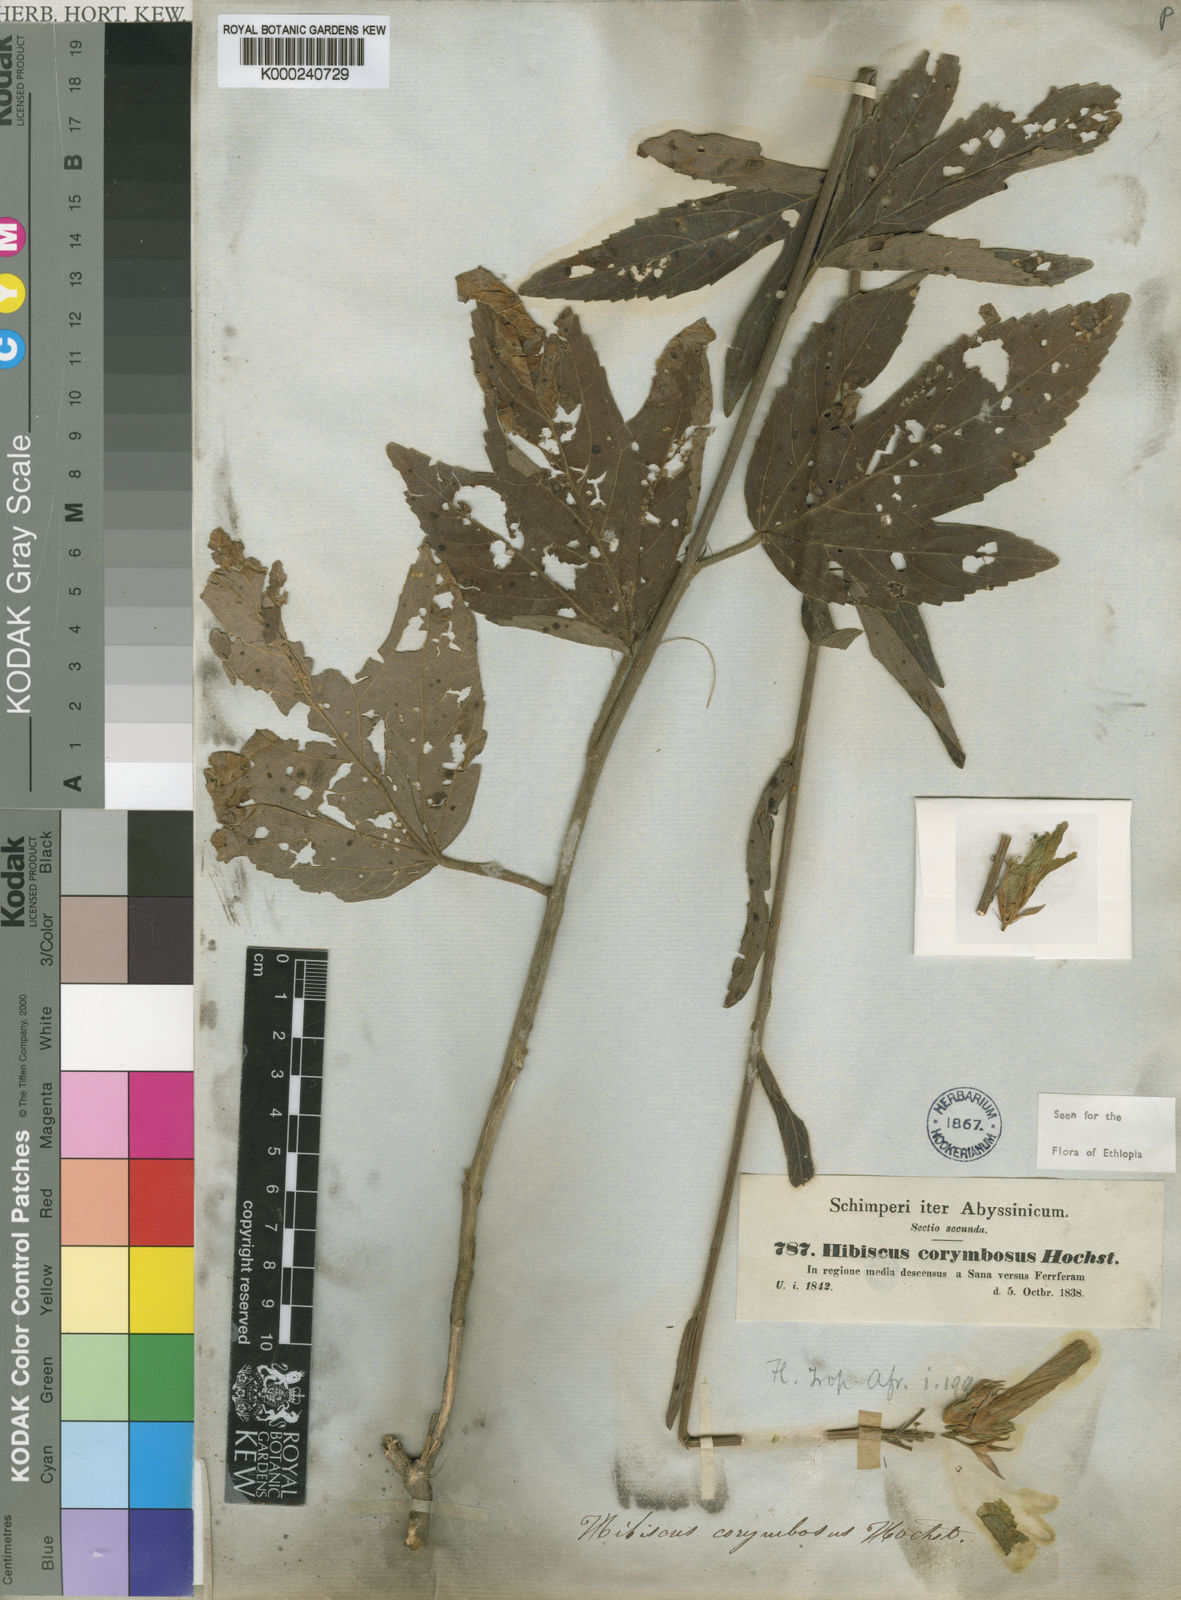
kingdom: Plantae
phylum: Tracheophyta
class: Magnoliopsida
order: Malvales
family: Malvaceae
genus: Hibiscus
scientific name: Hibiscus corymbosus
